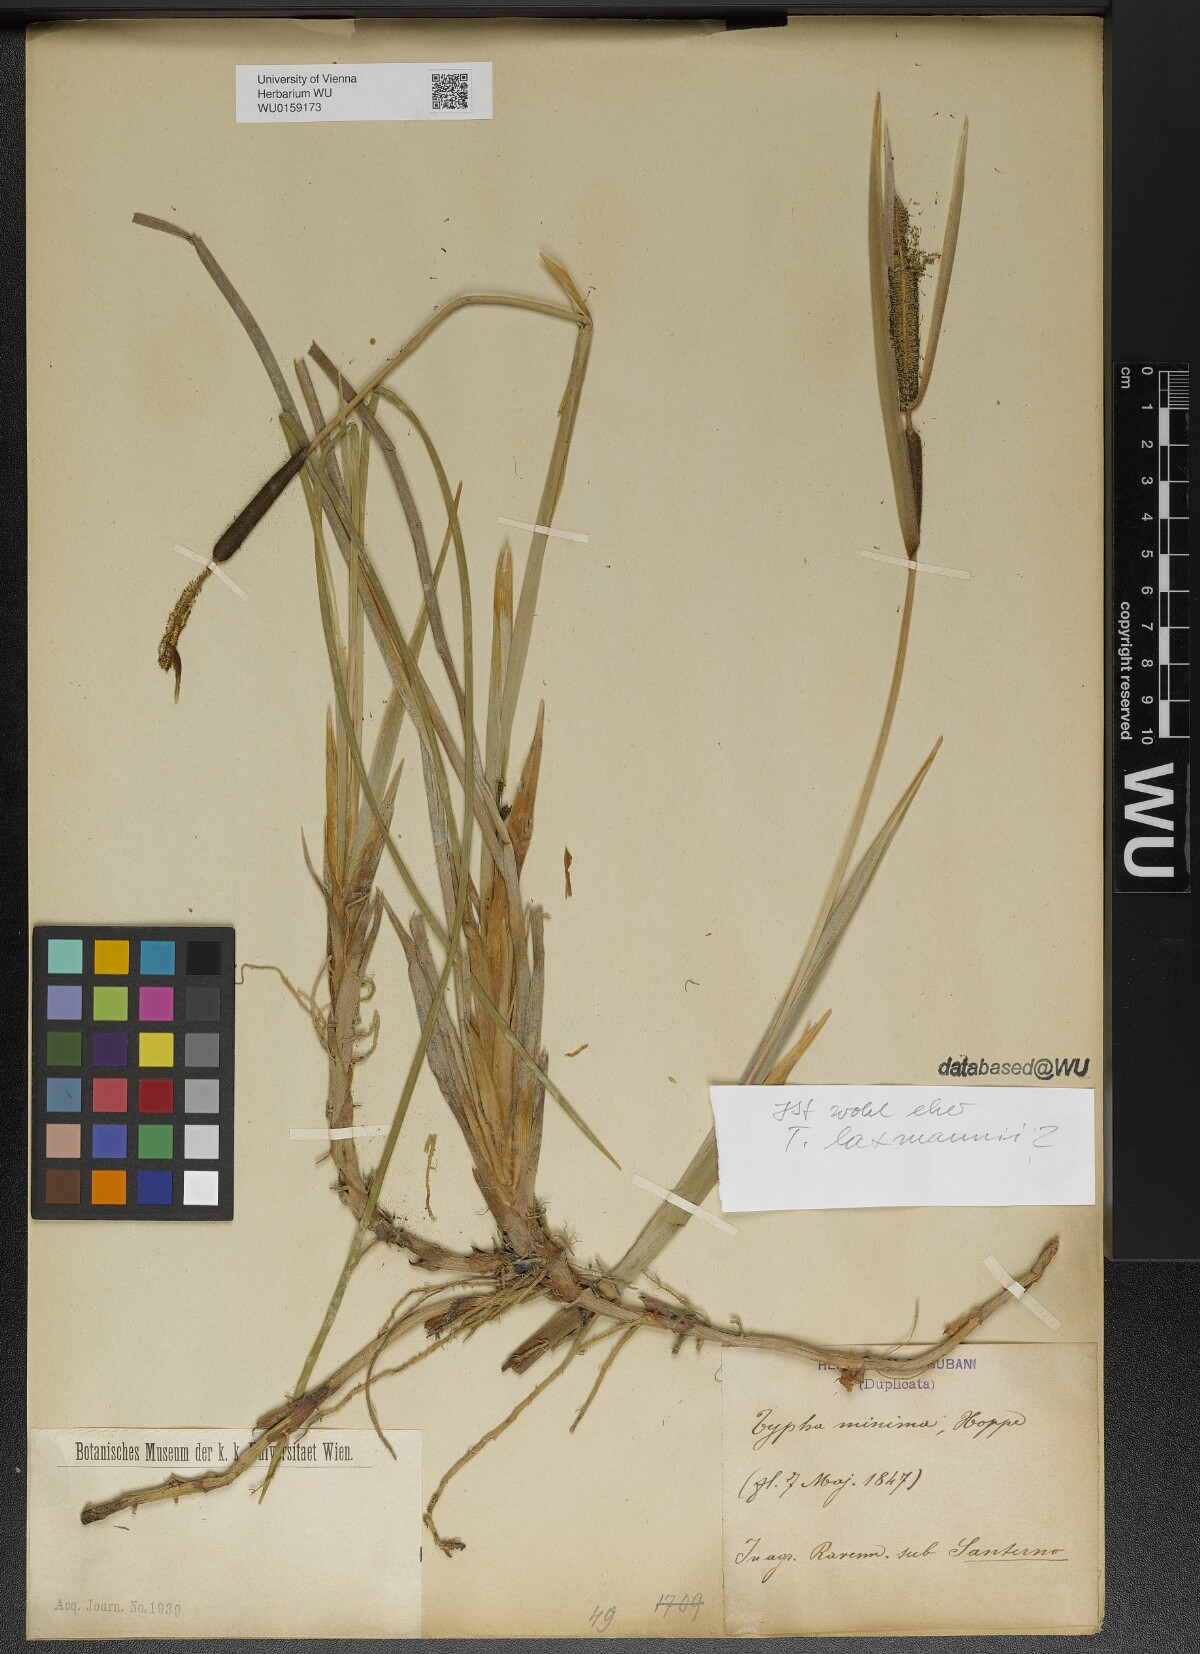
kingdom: Plantae
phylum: Tracheophyta
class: Liliopsida
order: Poales
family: Typhaceae
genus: Typha
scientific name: Typha laxmannii
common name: Laxman’s bulrush
